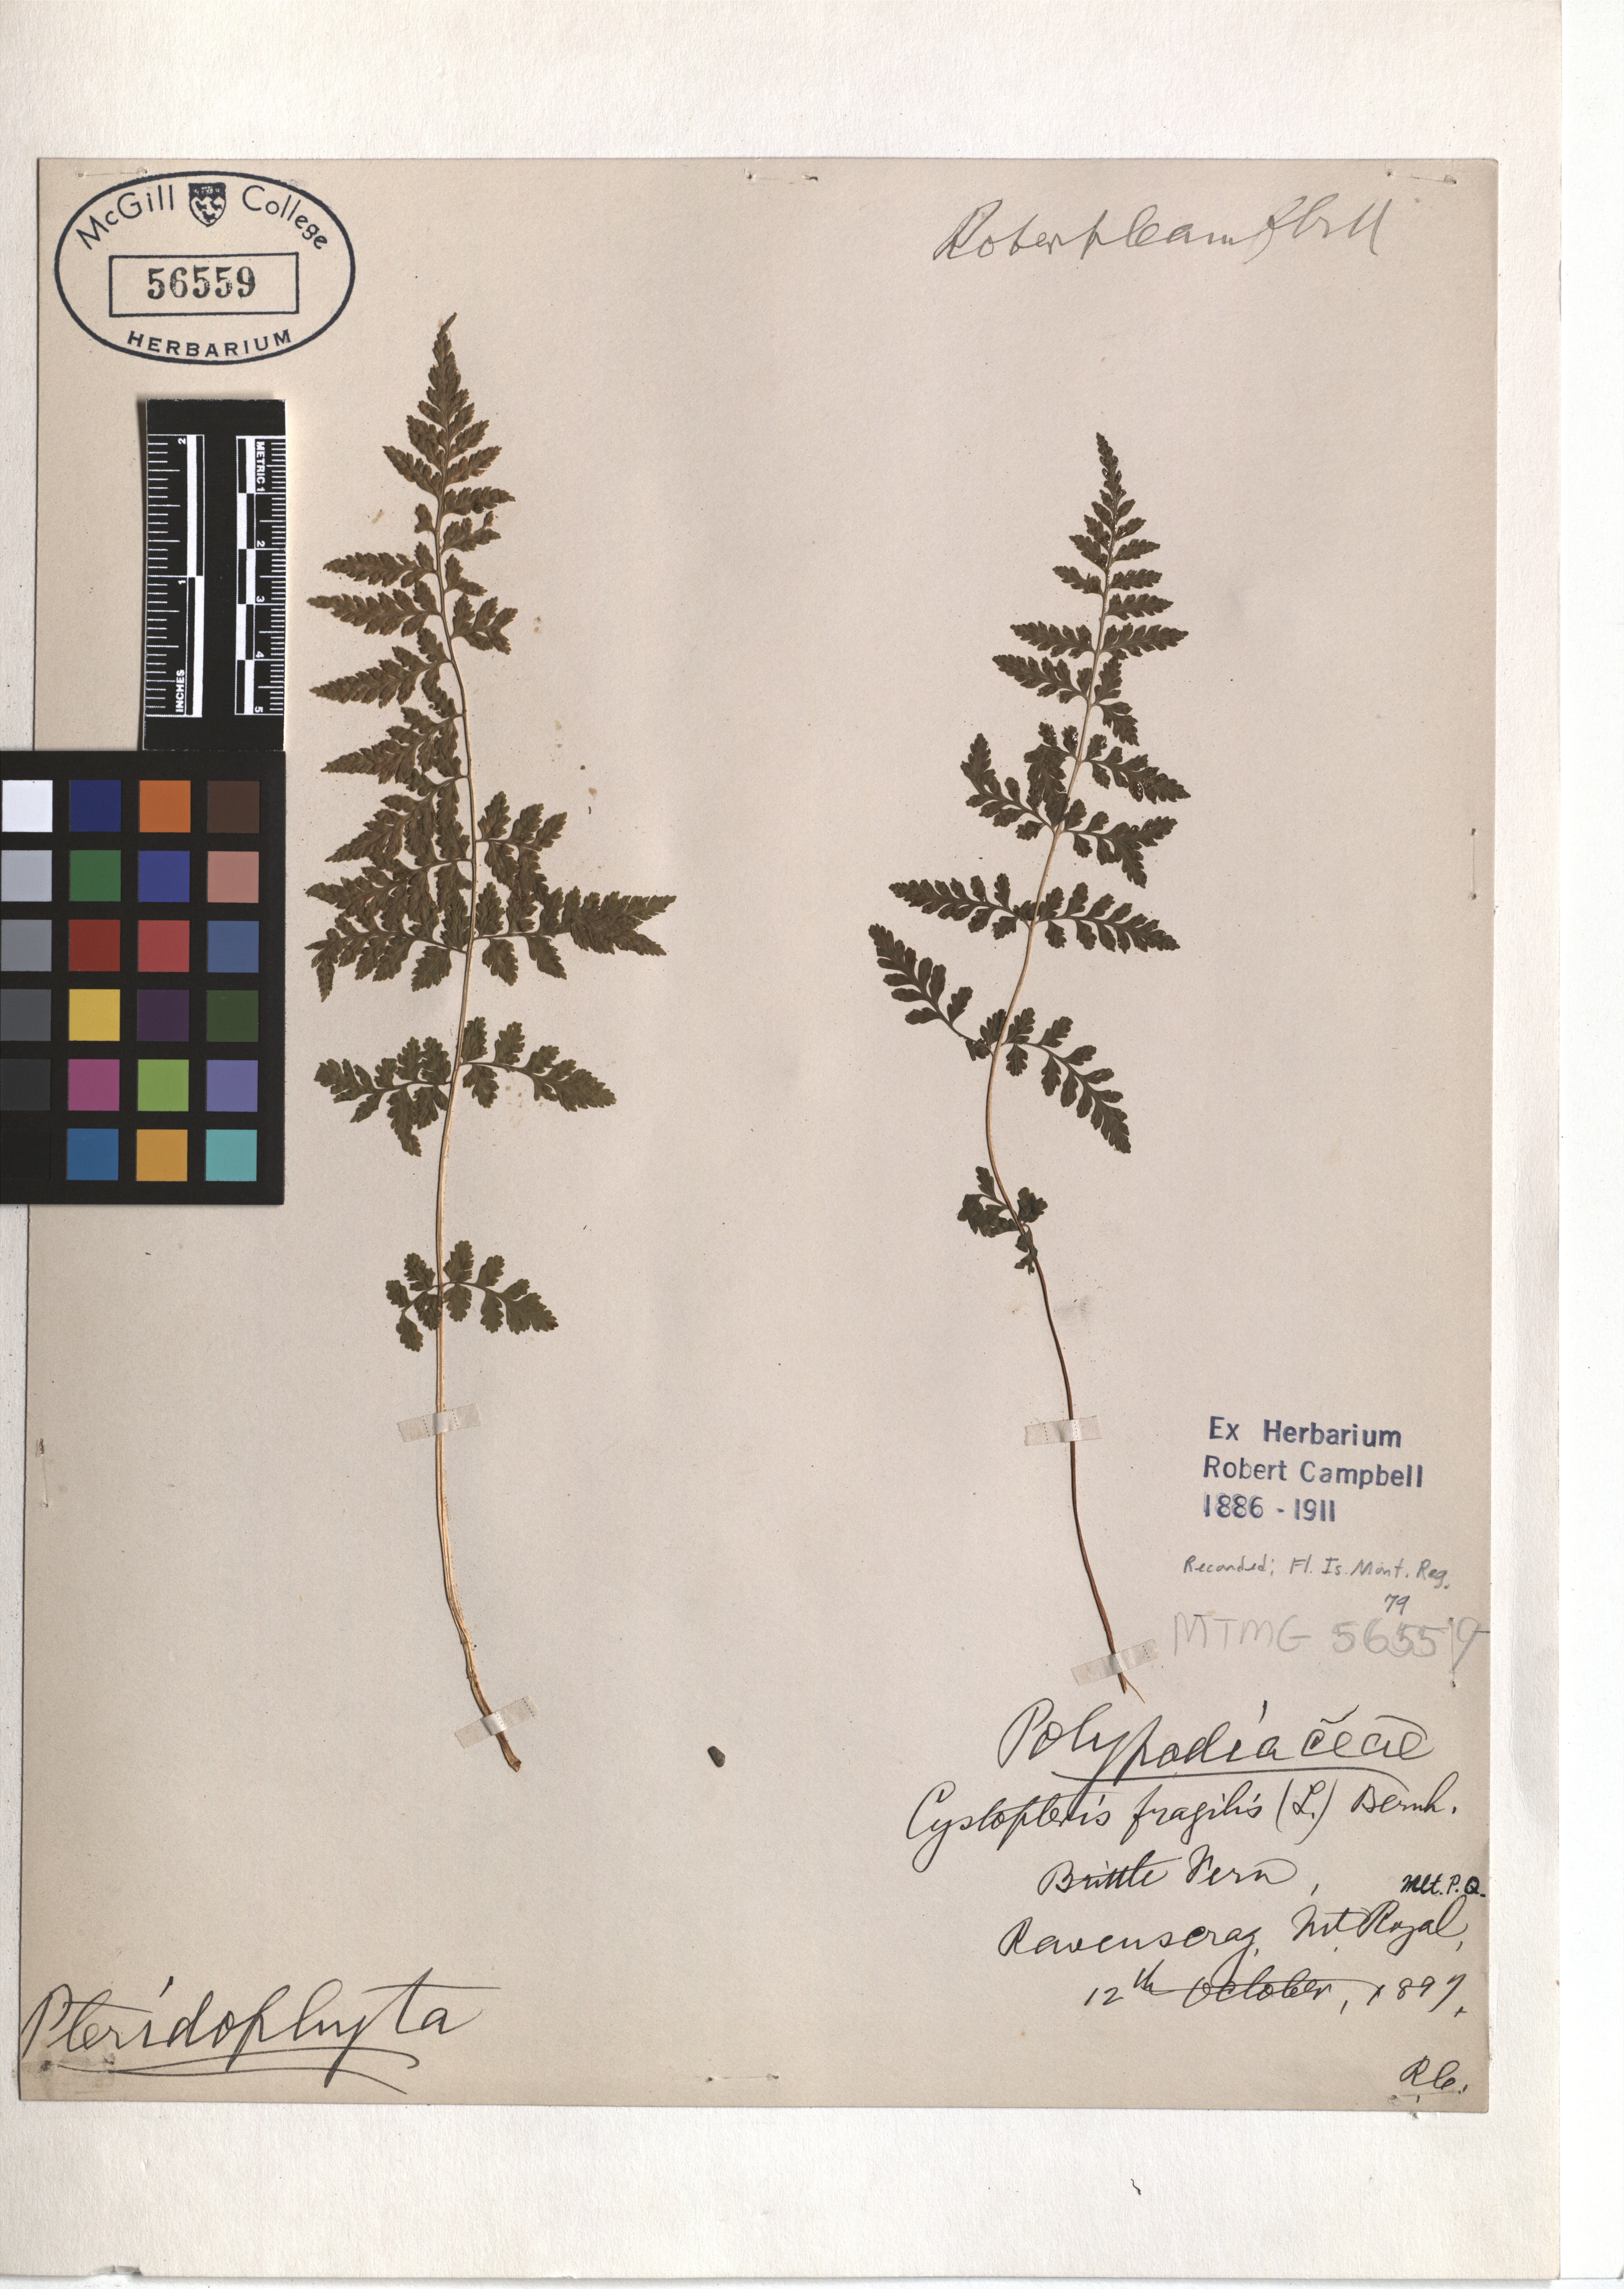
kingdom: Plantae
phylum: Tracheophyta
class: Polypodiopsida
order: Polypodiales
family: Cystopteridaceae
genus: Cystopteris
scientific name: Cystopteris fragilis
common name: Brittle bladder fern
